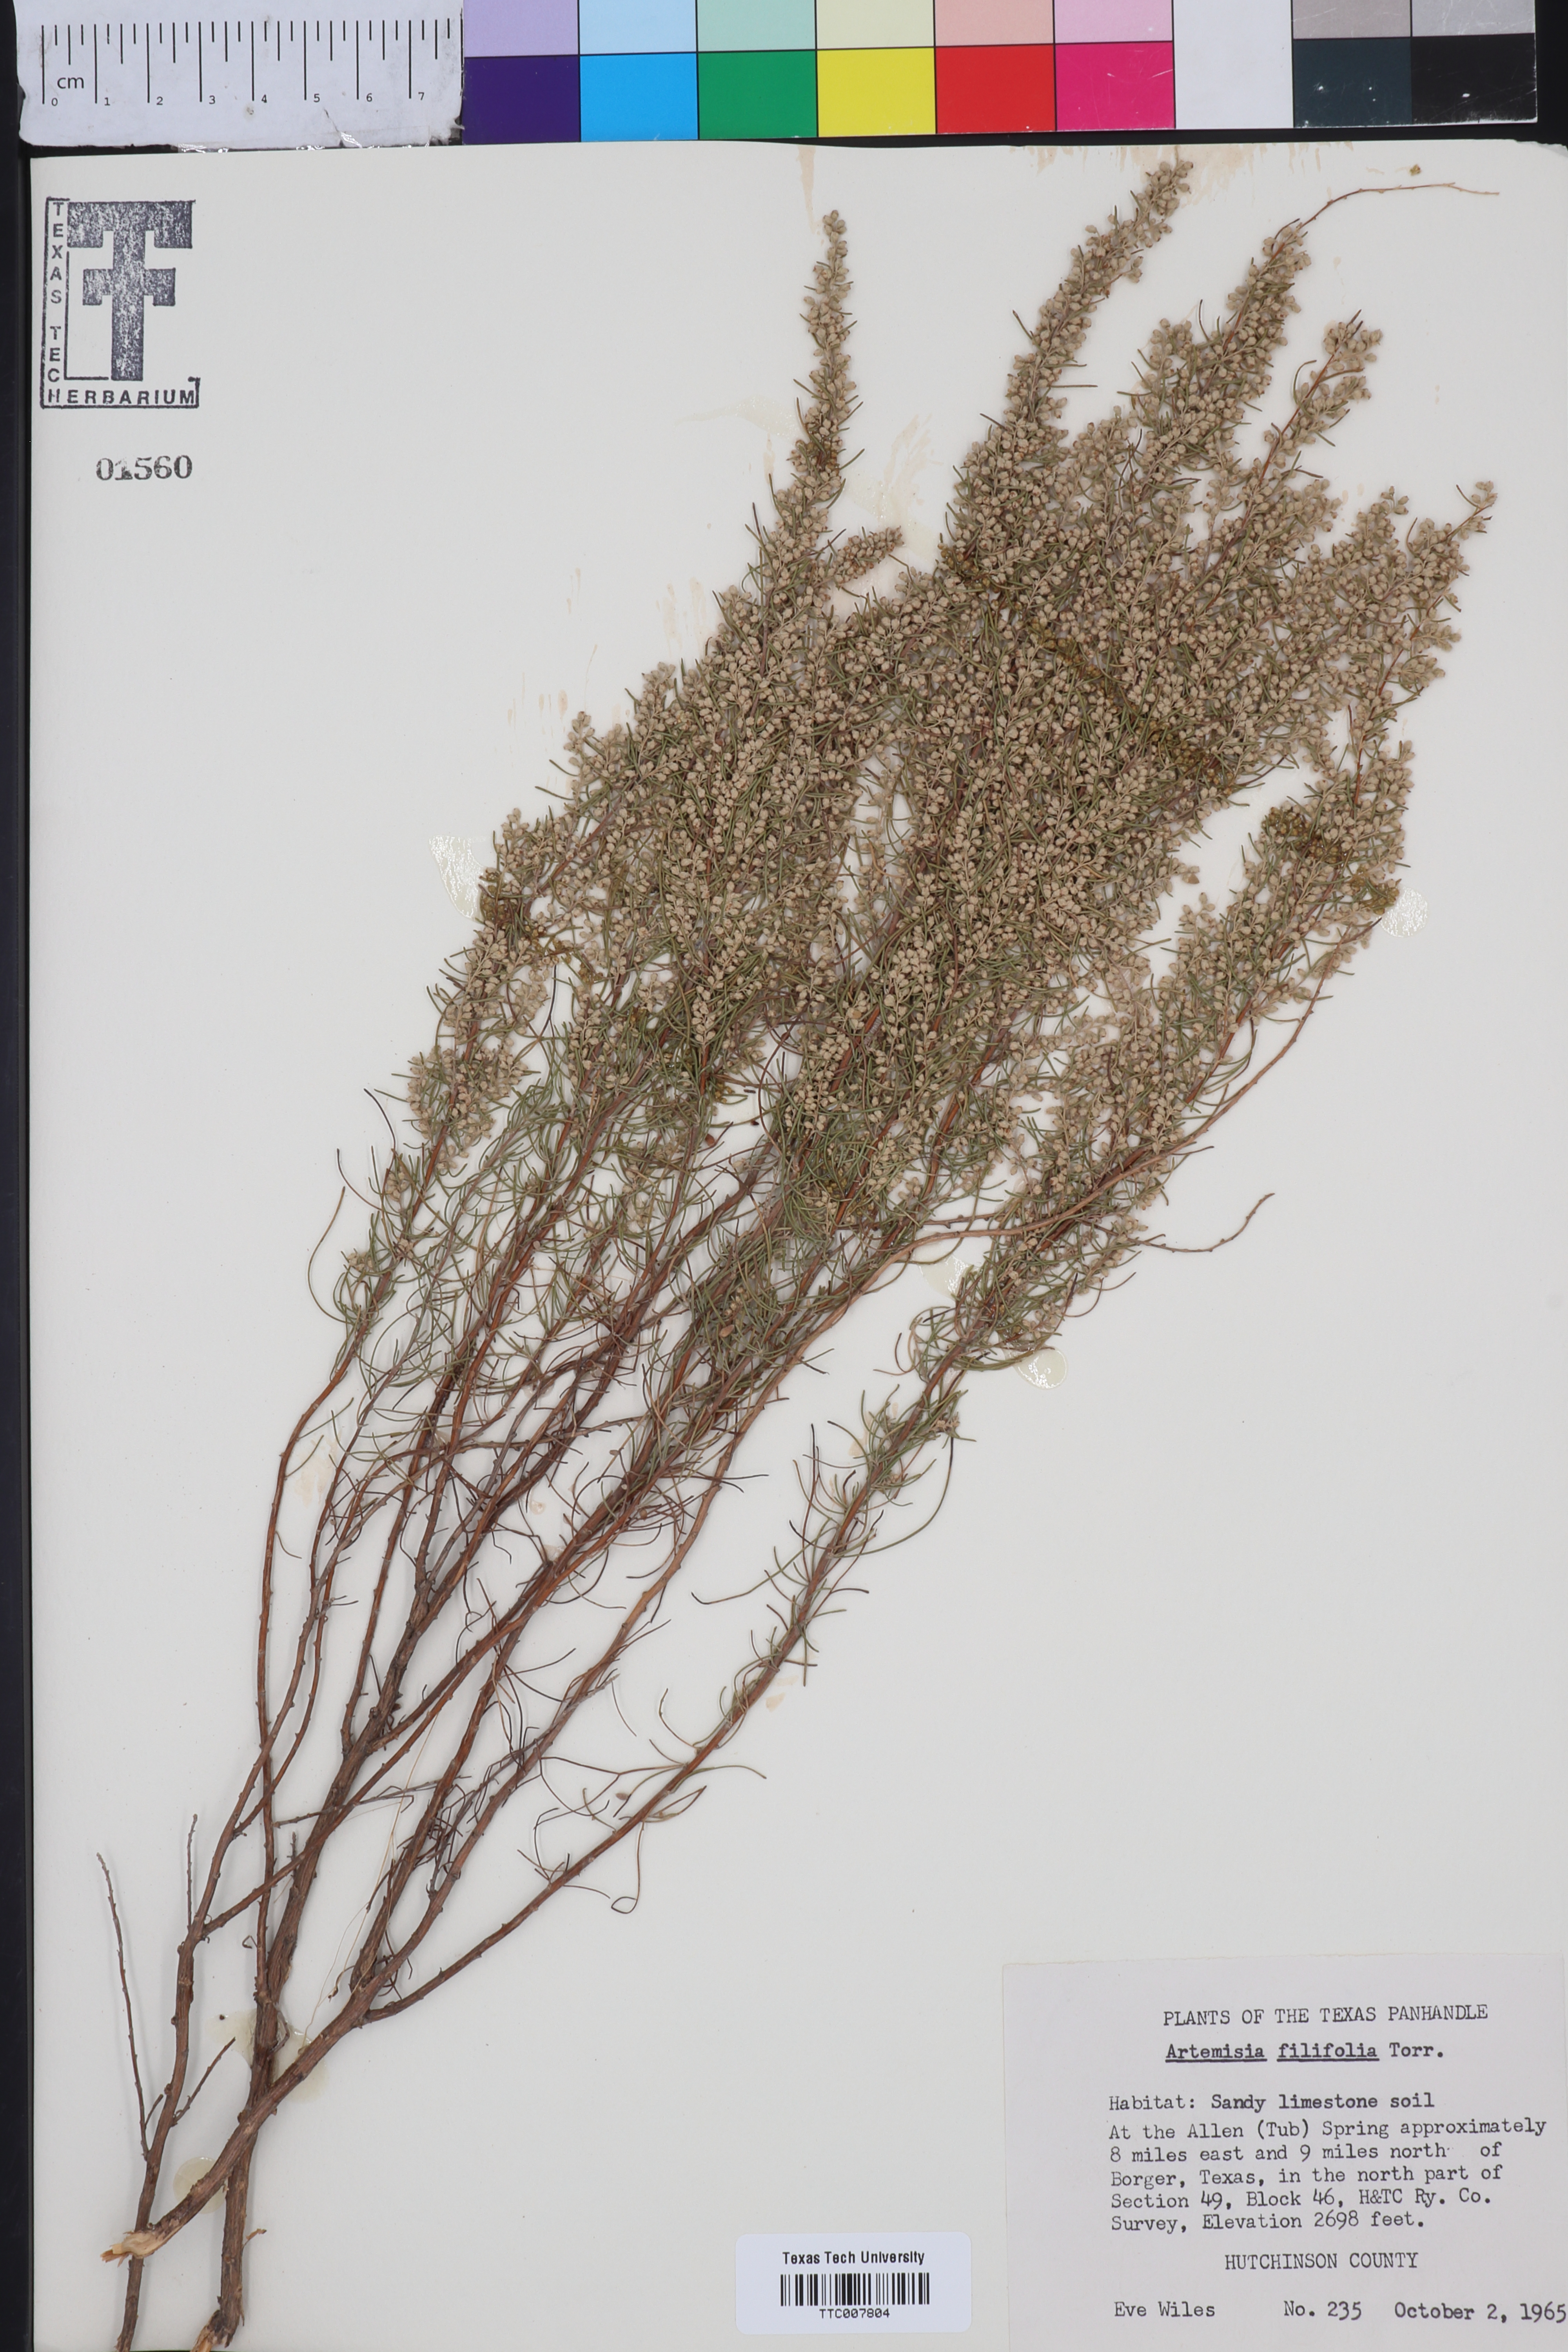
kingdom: Plantae
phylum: Tracheophyta
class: Magnoliopsida
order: Asterales
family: Asteraceae
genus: Artemisia
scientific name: Artemisia filifolia
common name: Sand-sage
